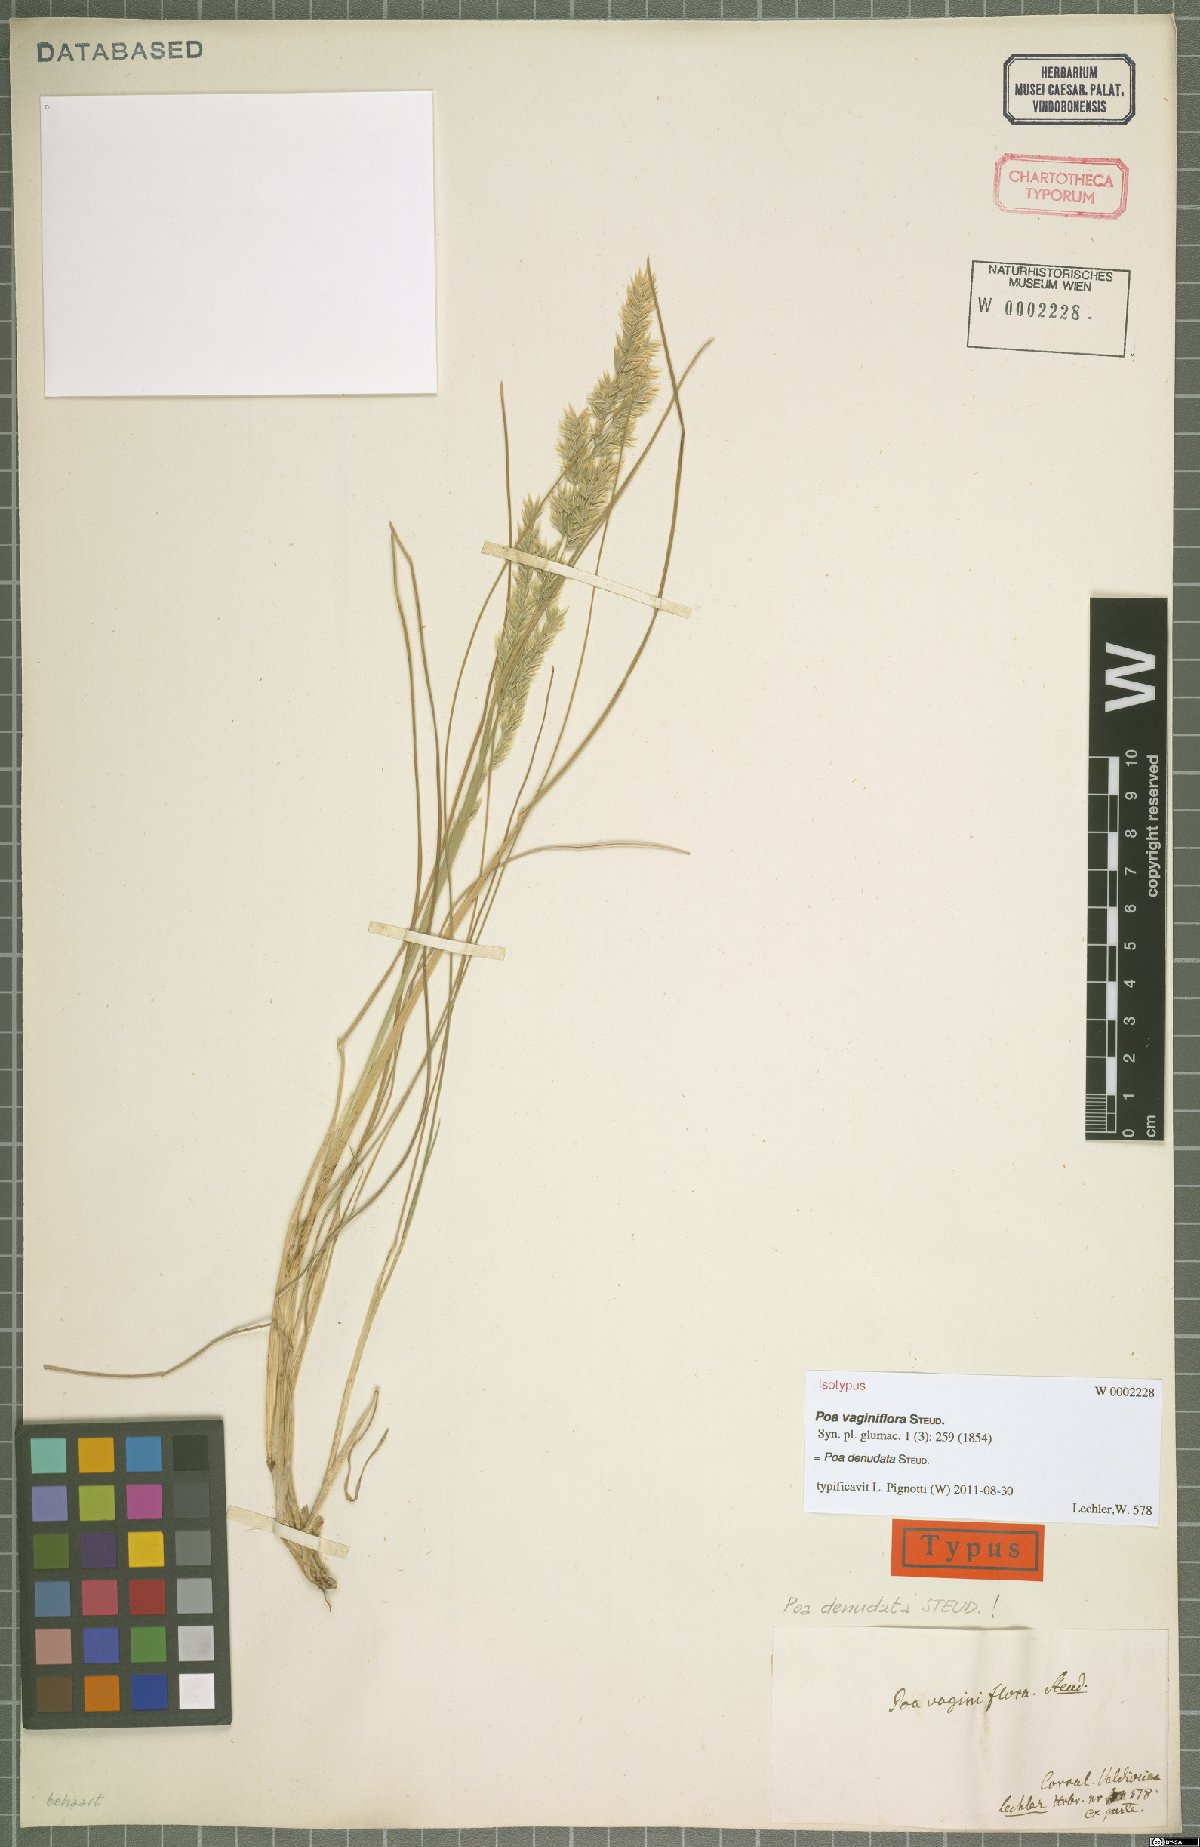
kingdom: Plantae
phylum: Tracheophyta
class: Liliopsida
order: Poales
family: Poaceae
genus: Poa
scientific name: Poa denudata
